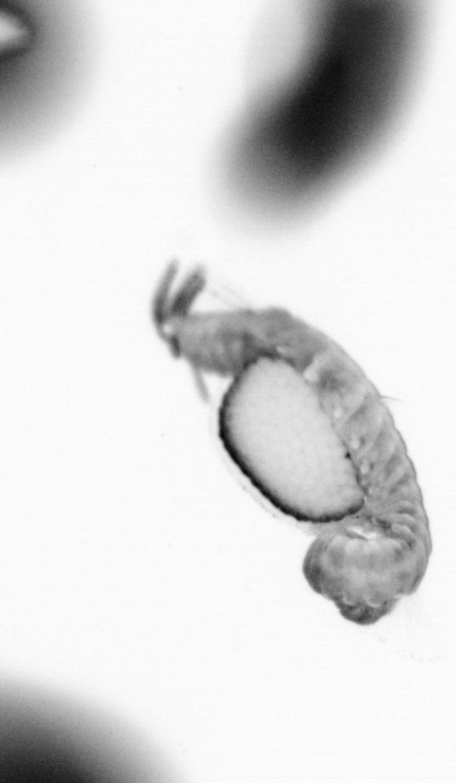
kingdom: Animalia
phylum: Annelida
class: Polychaeta
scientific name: Polychaeta
